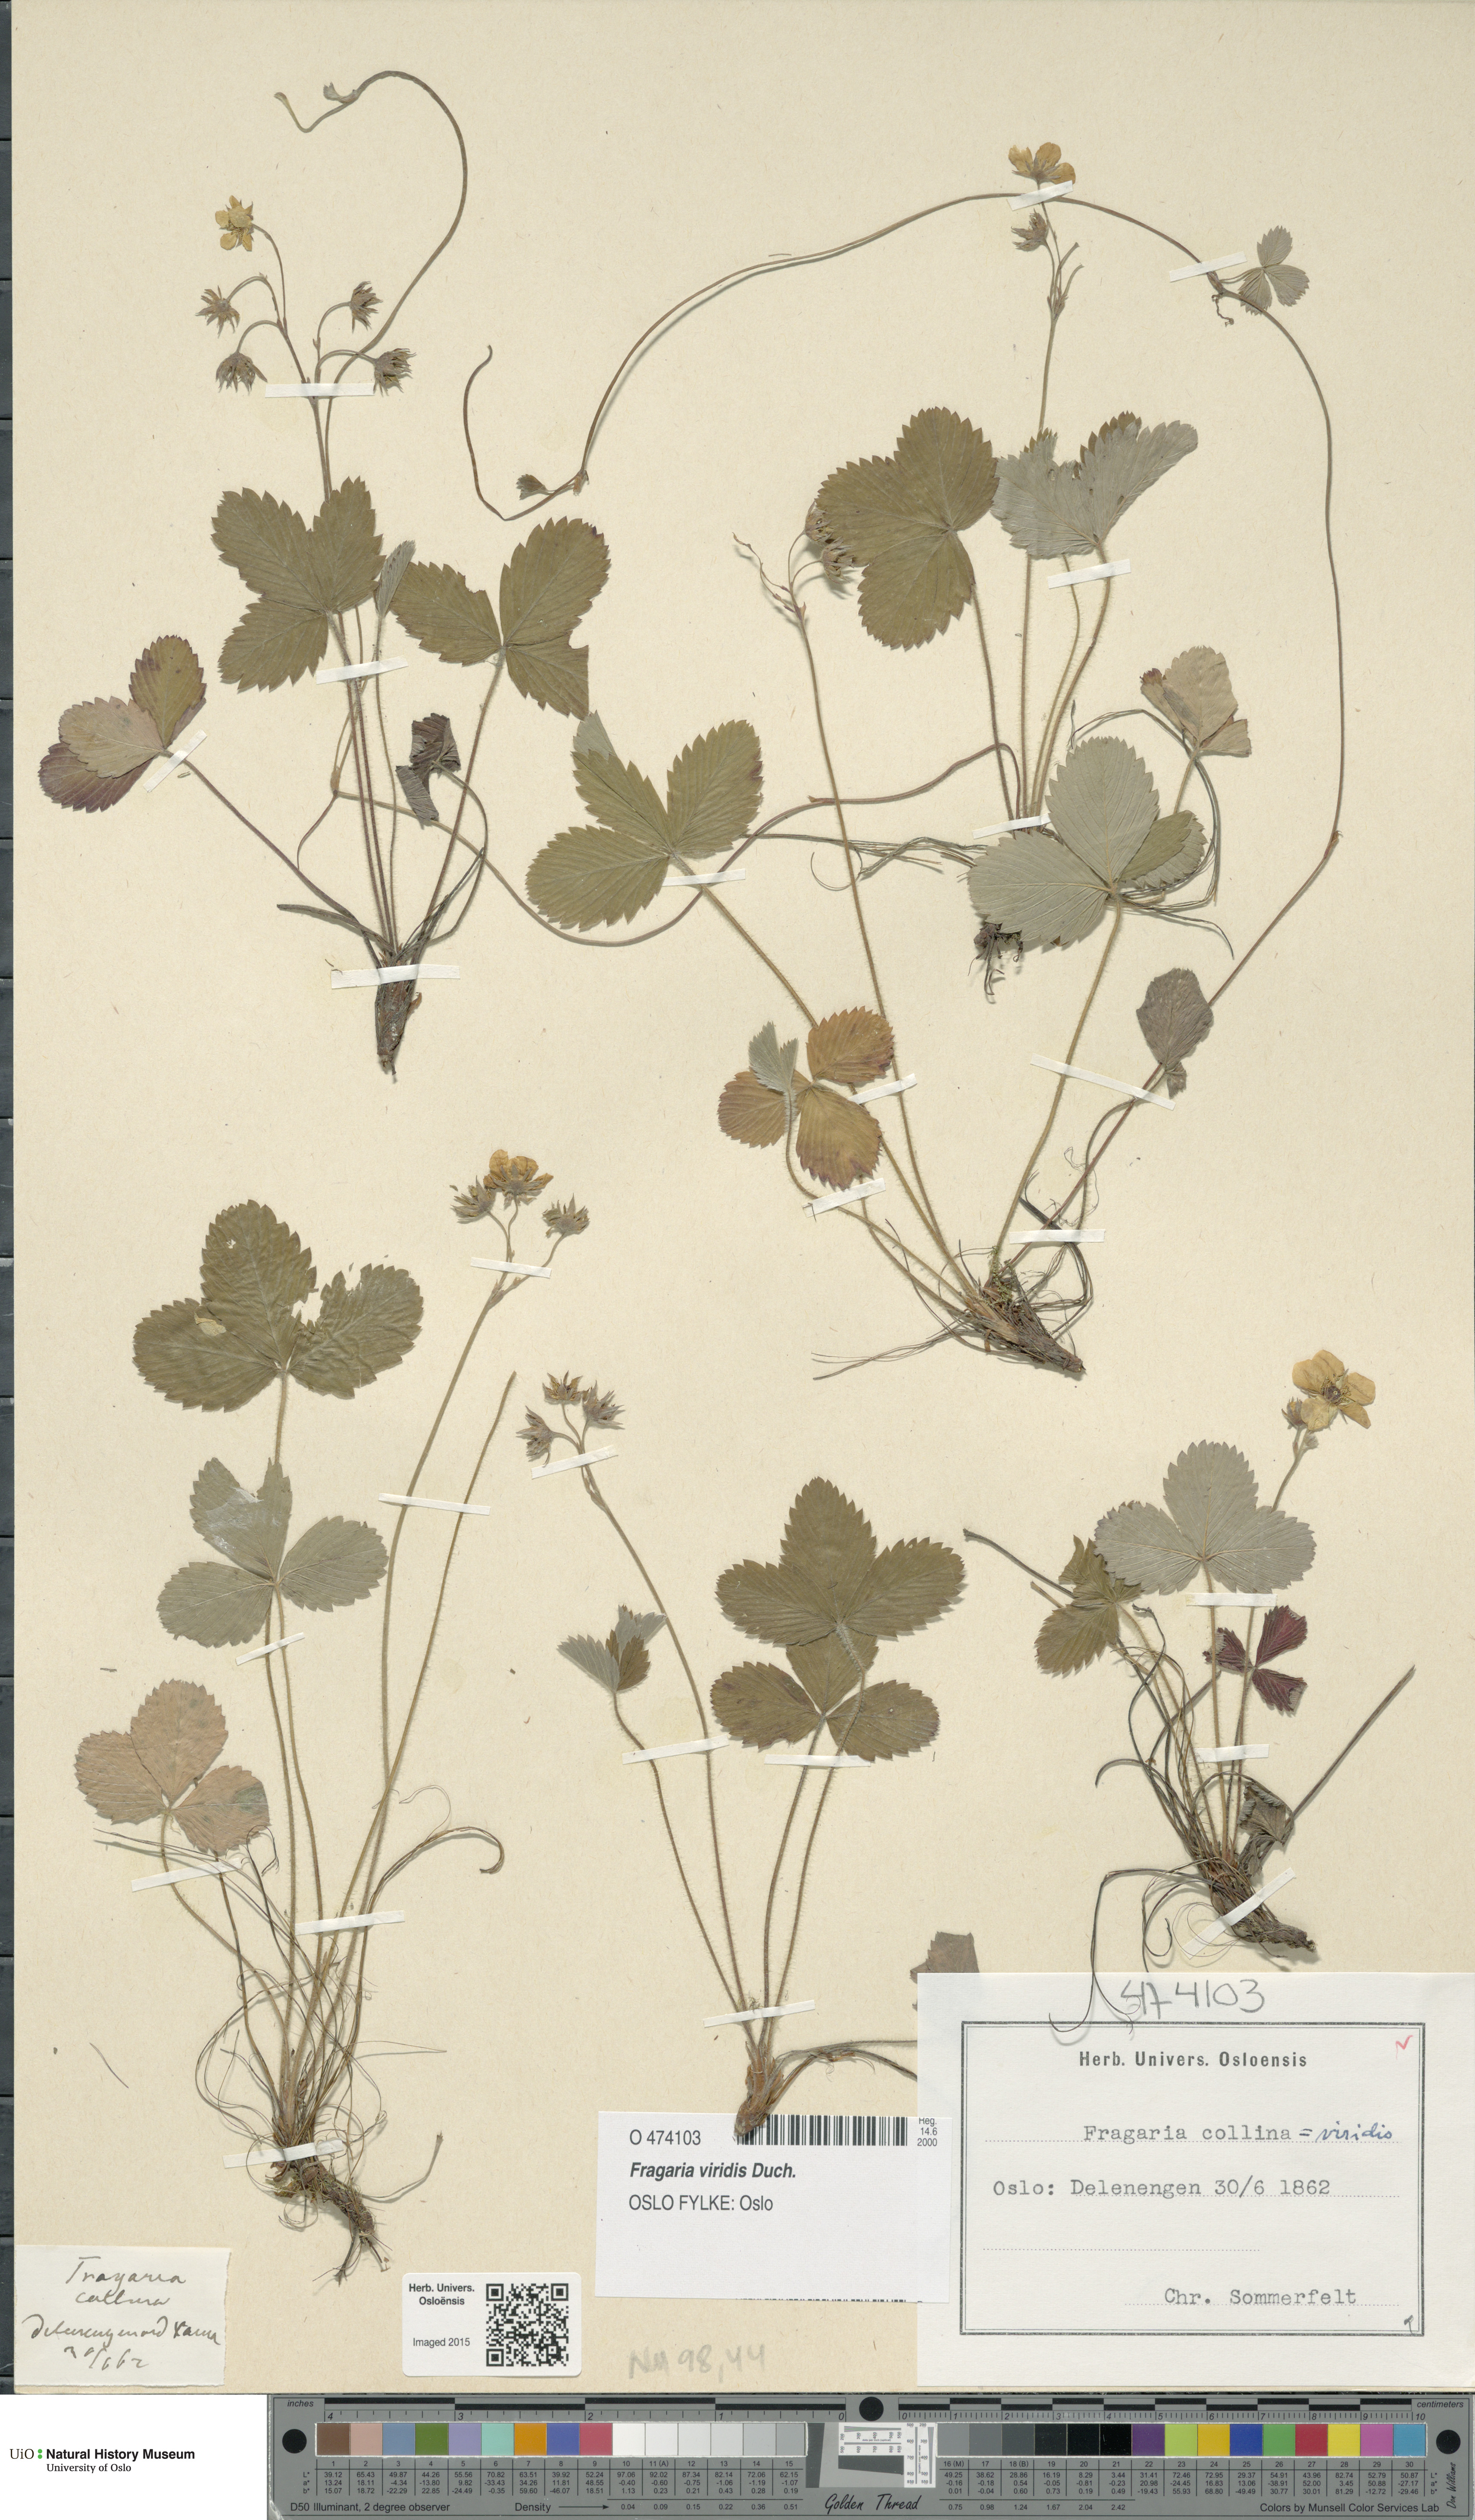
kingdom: Plantae
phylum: Tracheophyta
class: Magnoliopsida
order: Rosales
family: Rosaceae
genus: Fragaria
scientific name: Fragaria viridis
